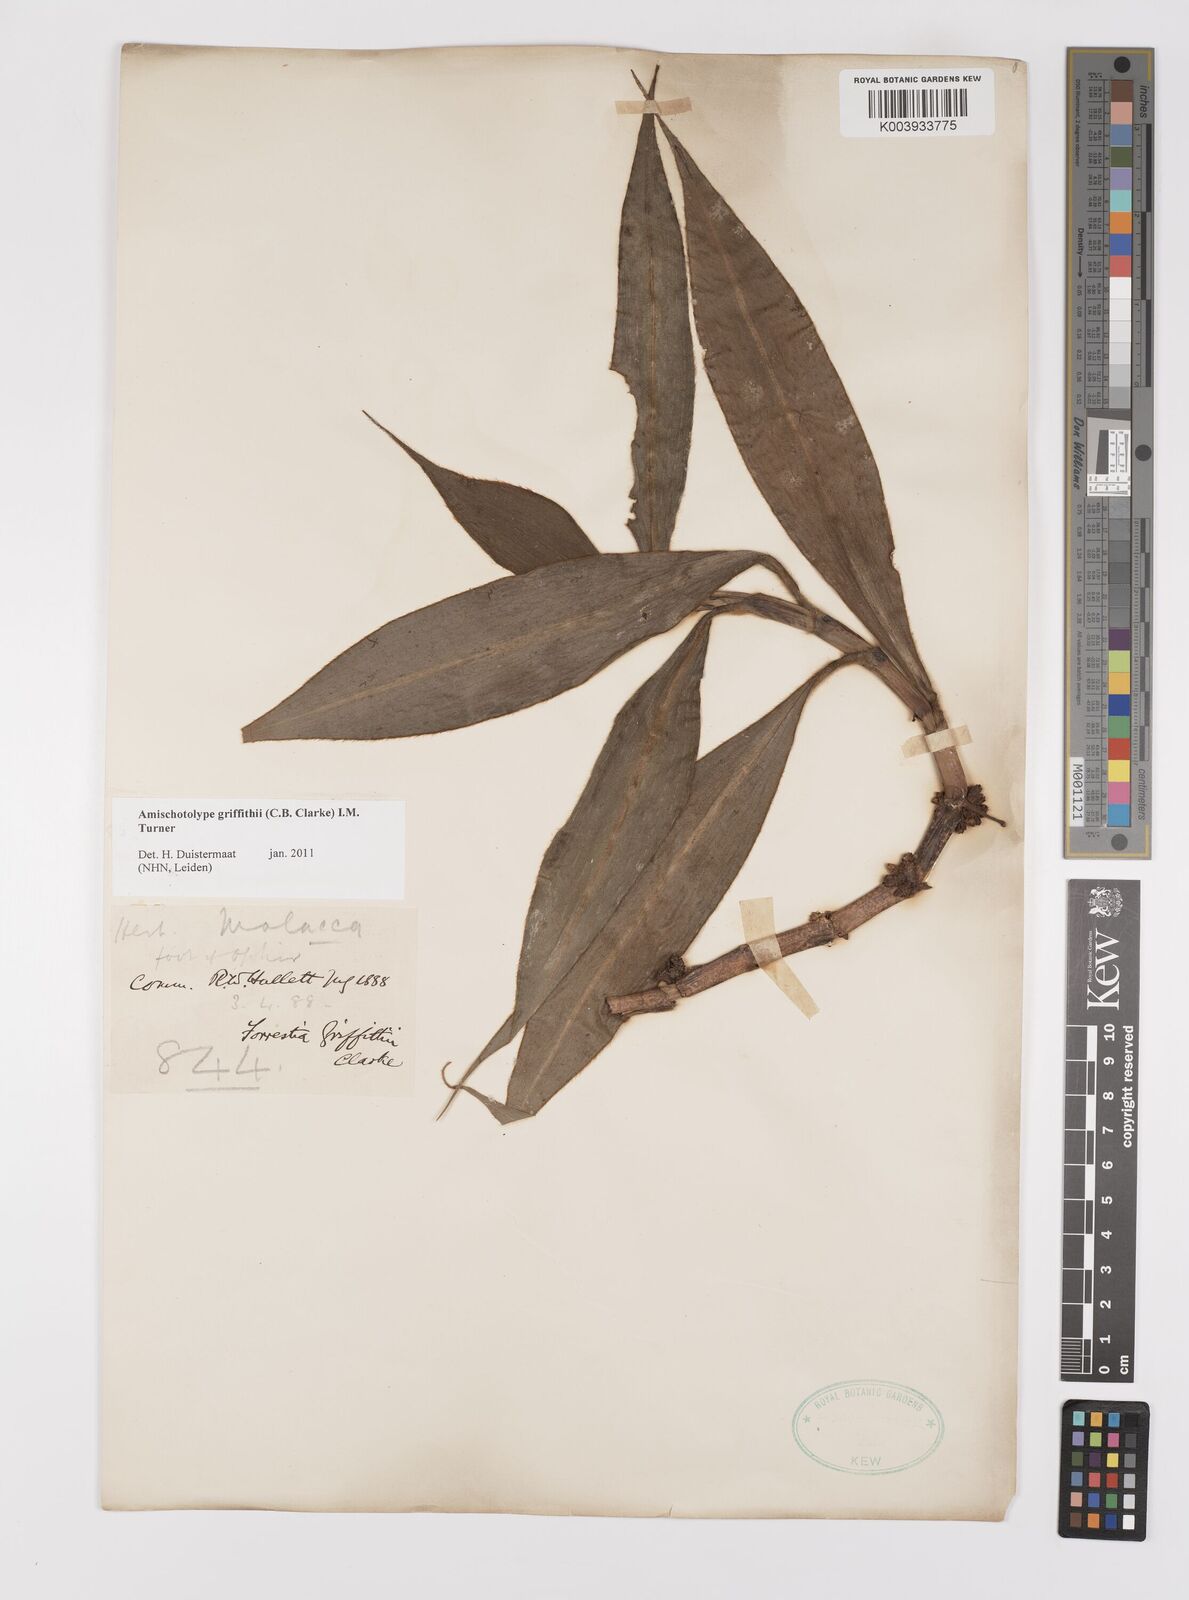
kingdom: Plantae
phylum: Tracheophyta
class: Liliopsida
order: Commelinales
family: Commelinaceae
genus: Amischotolype
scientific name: Amischotolype griffithii
